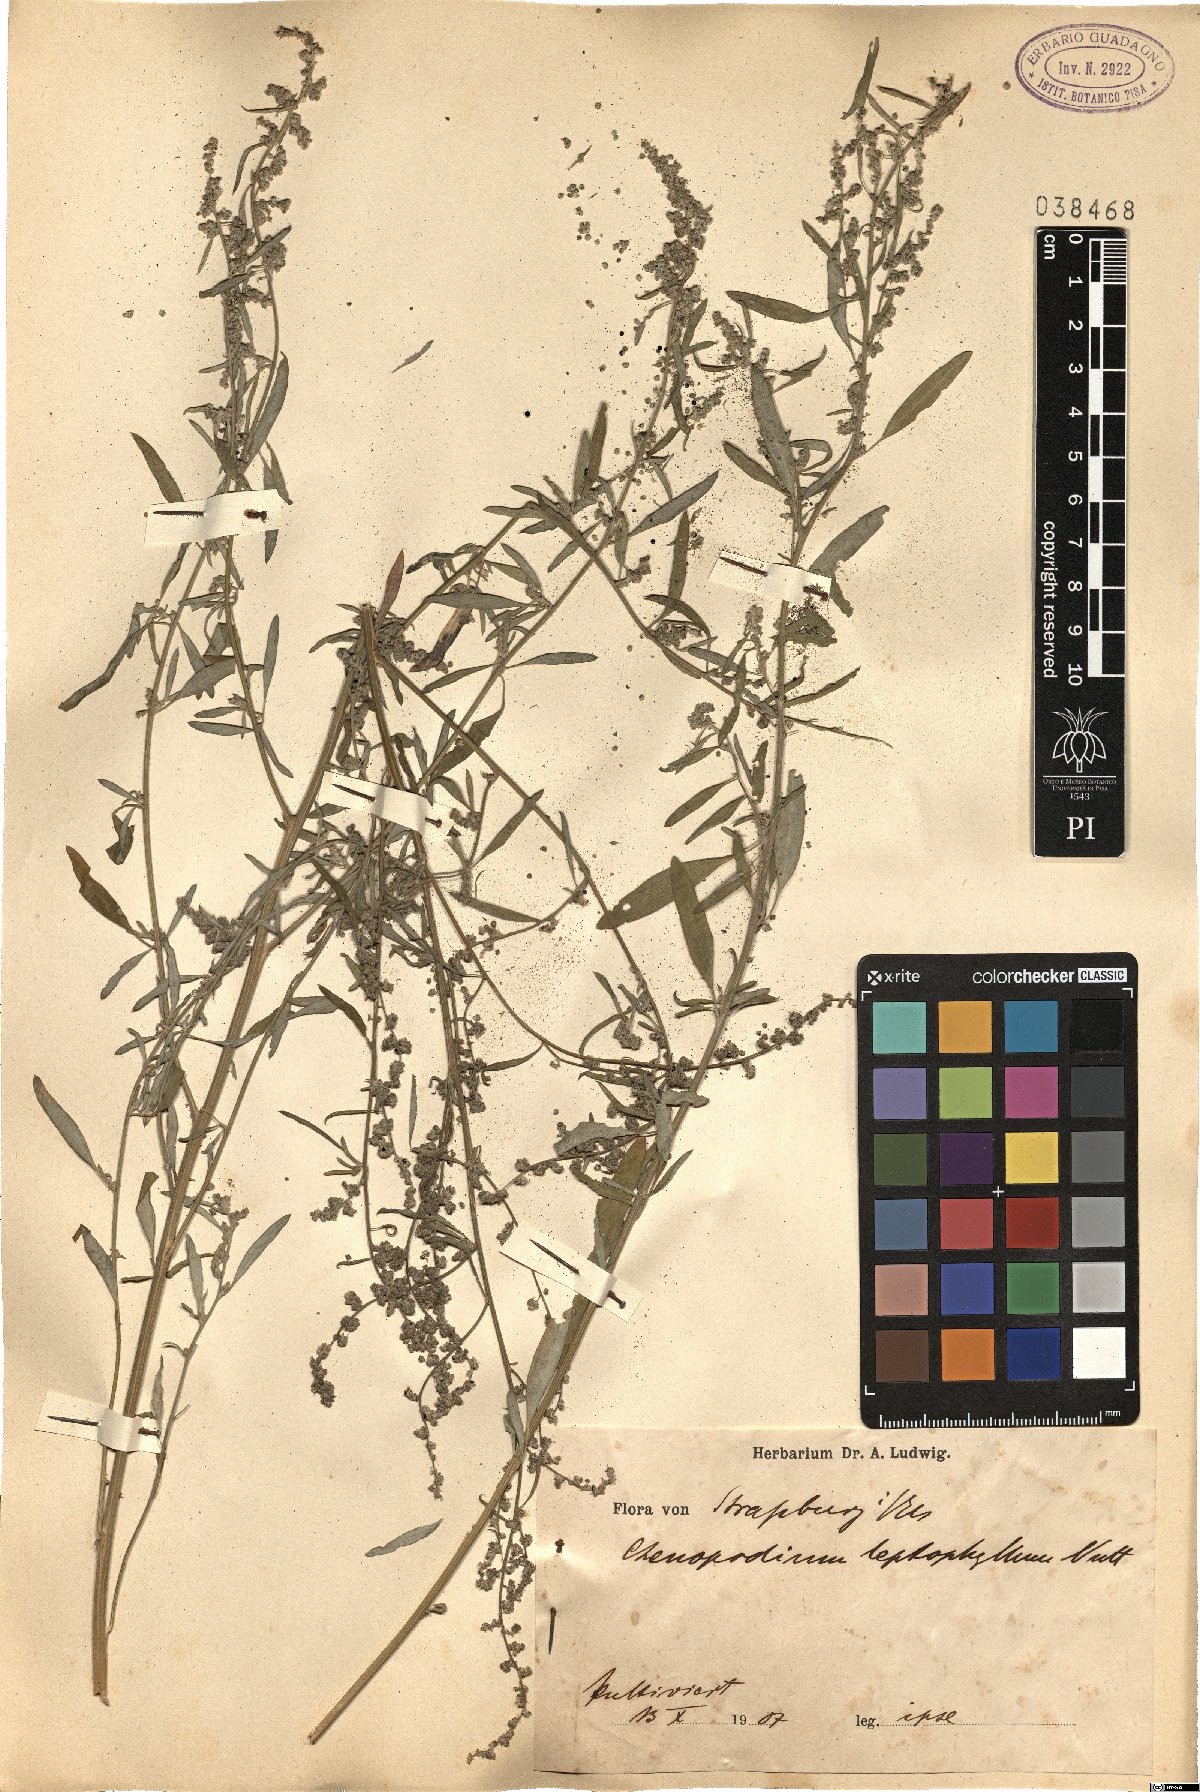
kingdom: Plantae
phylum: Tracheophyta
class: Magnoliopsida
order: Caryophyllales
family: Amaranthaceae
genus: Chenopodium
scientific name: Chenopodium leptophyllum
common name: Narrow-leaf goosefoot
